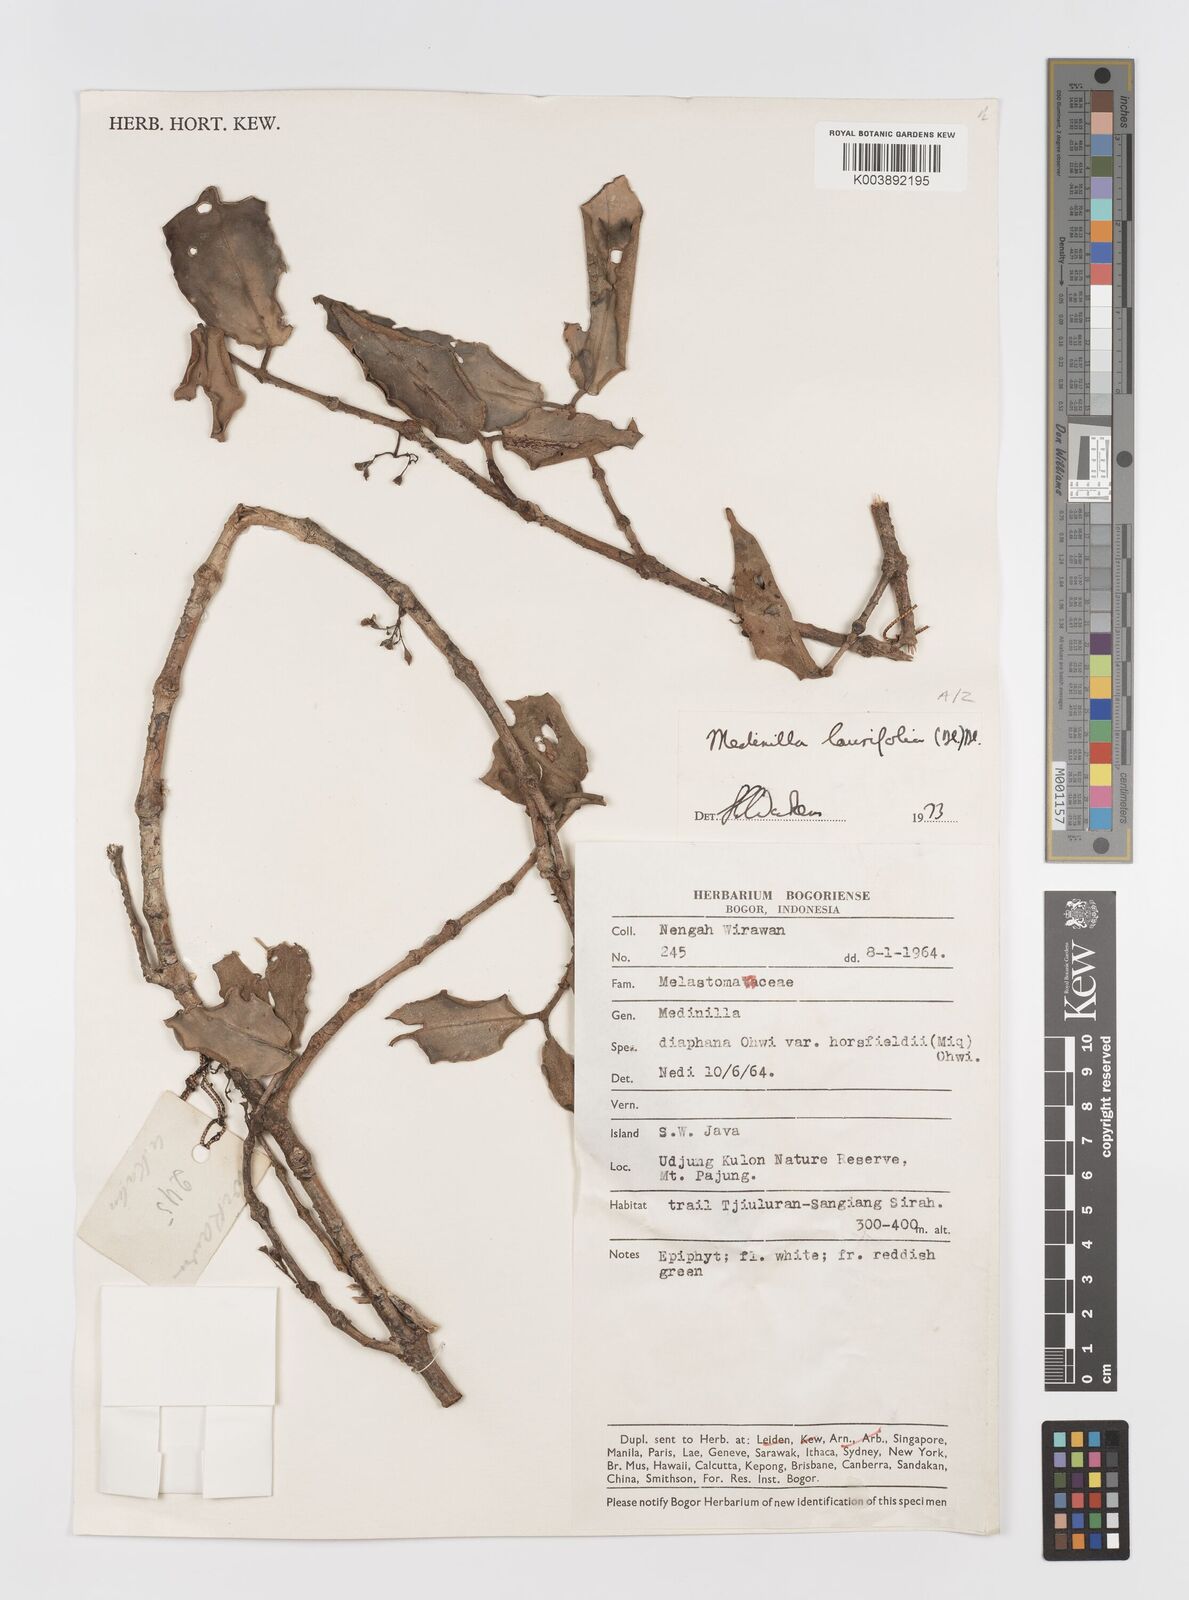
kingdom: Plantae
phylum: Tracheophyta
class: Magnoliopsida
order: Myrtales
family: Melastomataceae
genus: Medinilla
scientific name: Medinilla laurifolia
